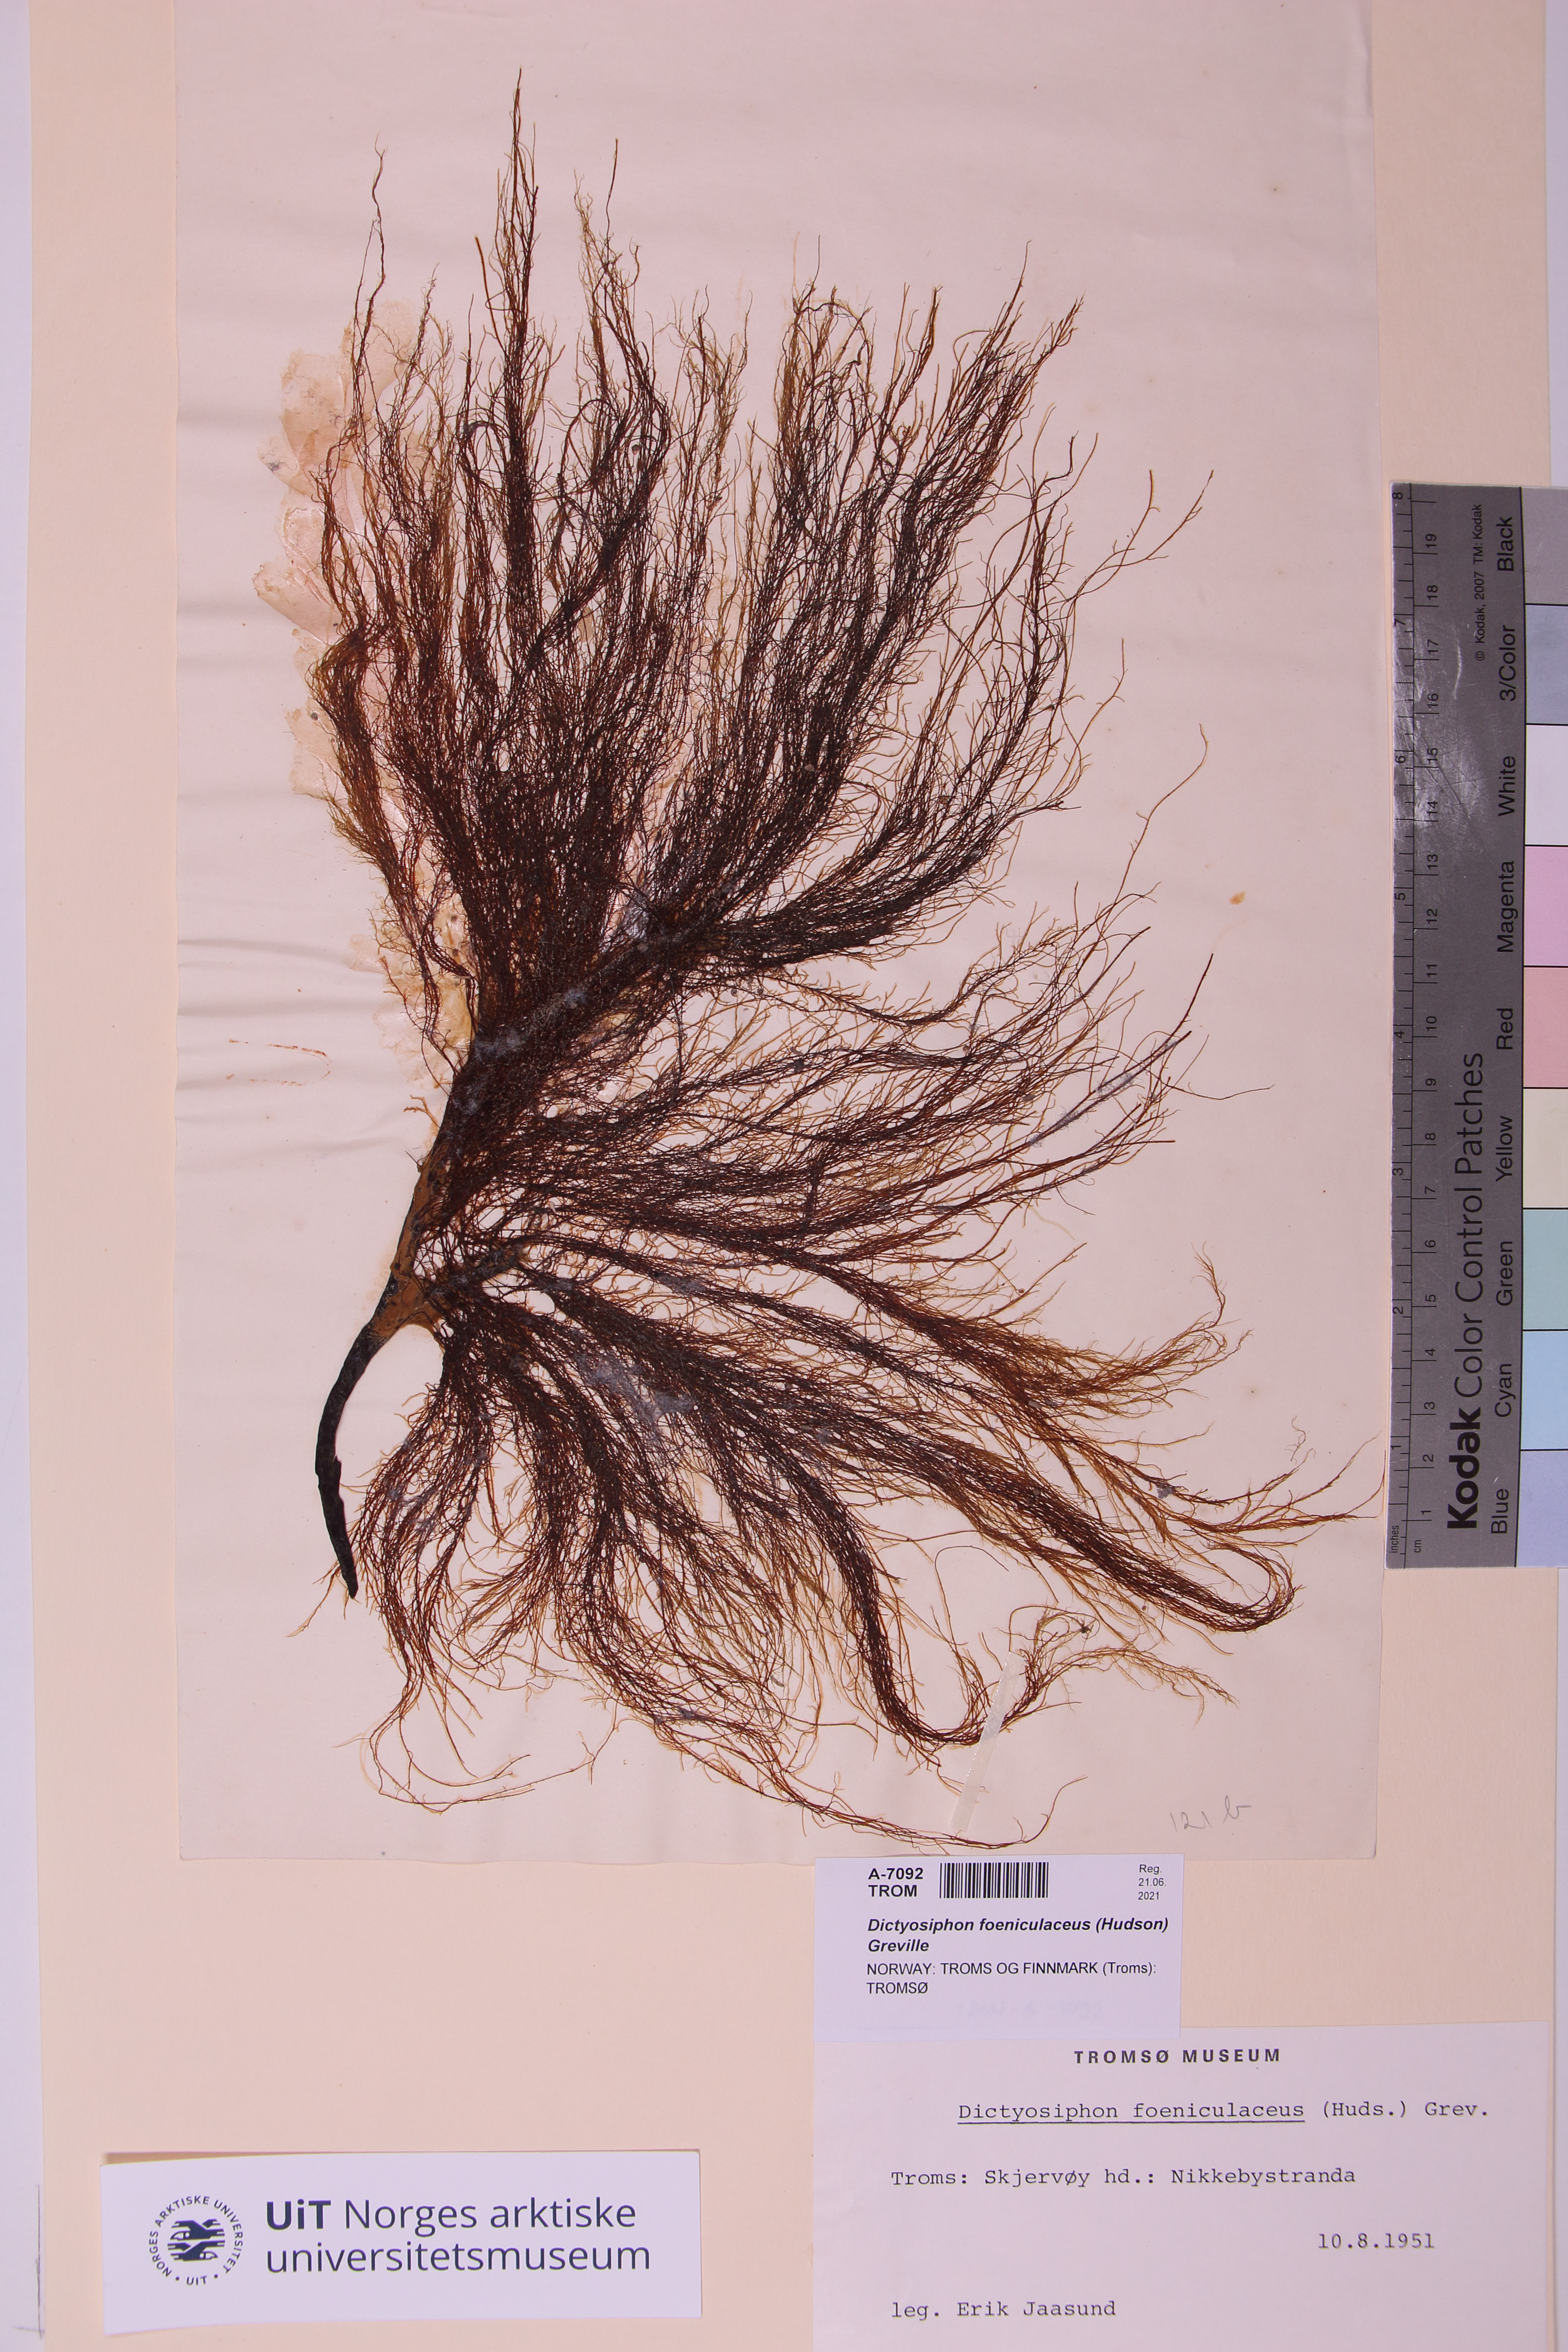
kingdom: Chromista
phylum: Ochrophyta
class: Phaeophyceae
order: Ectocarpales
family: Chordariaceae
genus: Dictyosiphon
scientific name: Dictyosiphon foeniculaceus
